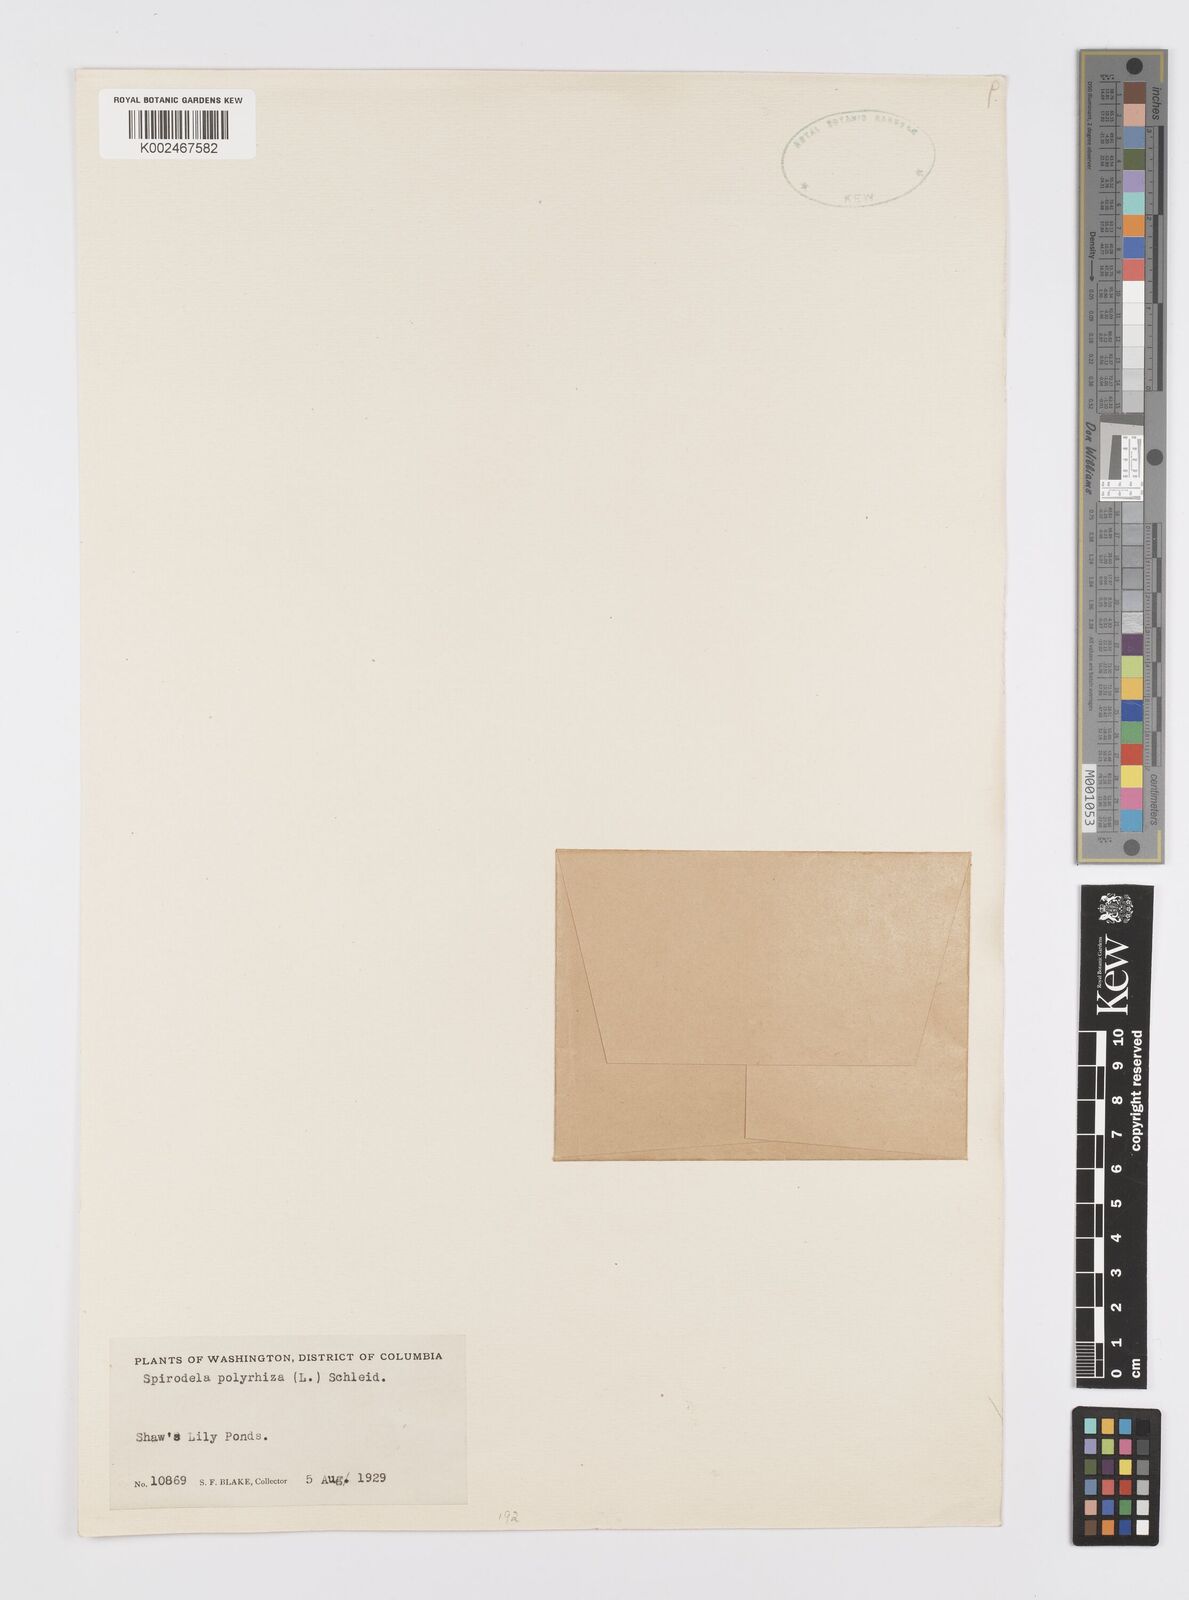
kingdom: Plantae
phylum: Tracheophyta
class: Liliopsida
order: Alismatales
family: Araceae
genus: Spirodela
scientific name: Spirodela polyrhiza
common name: Great duckweed
